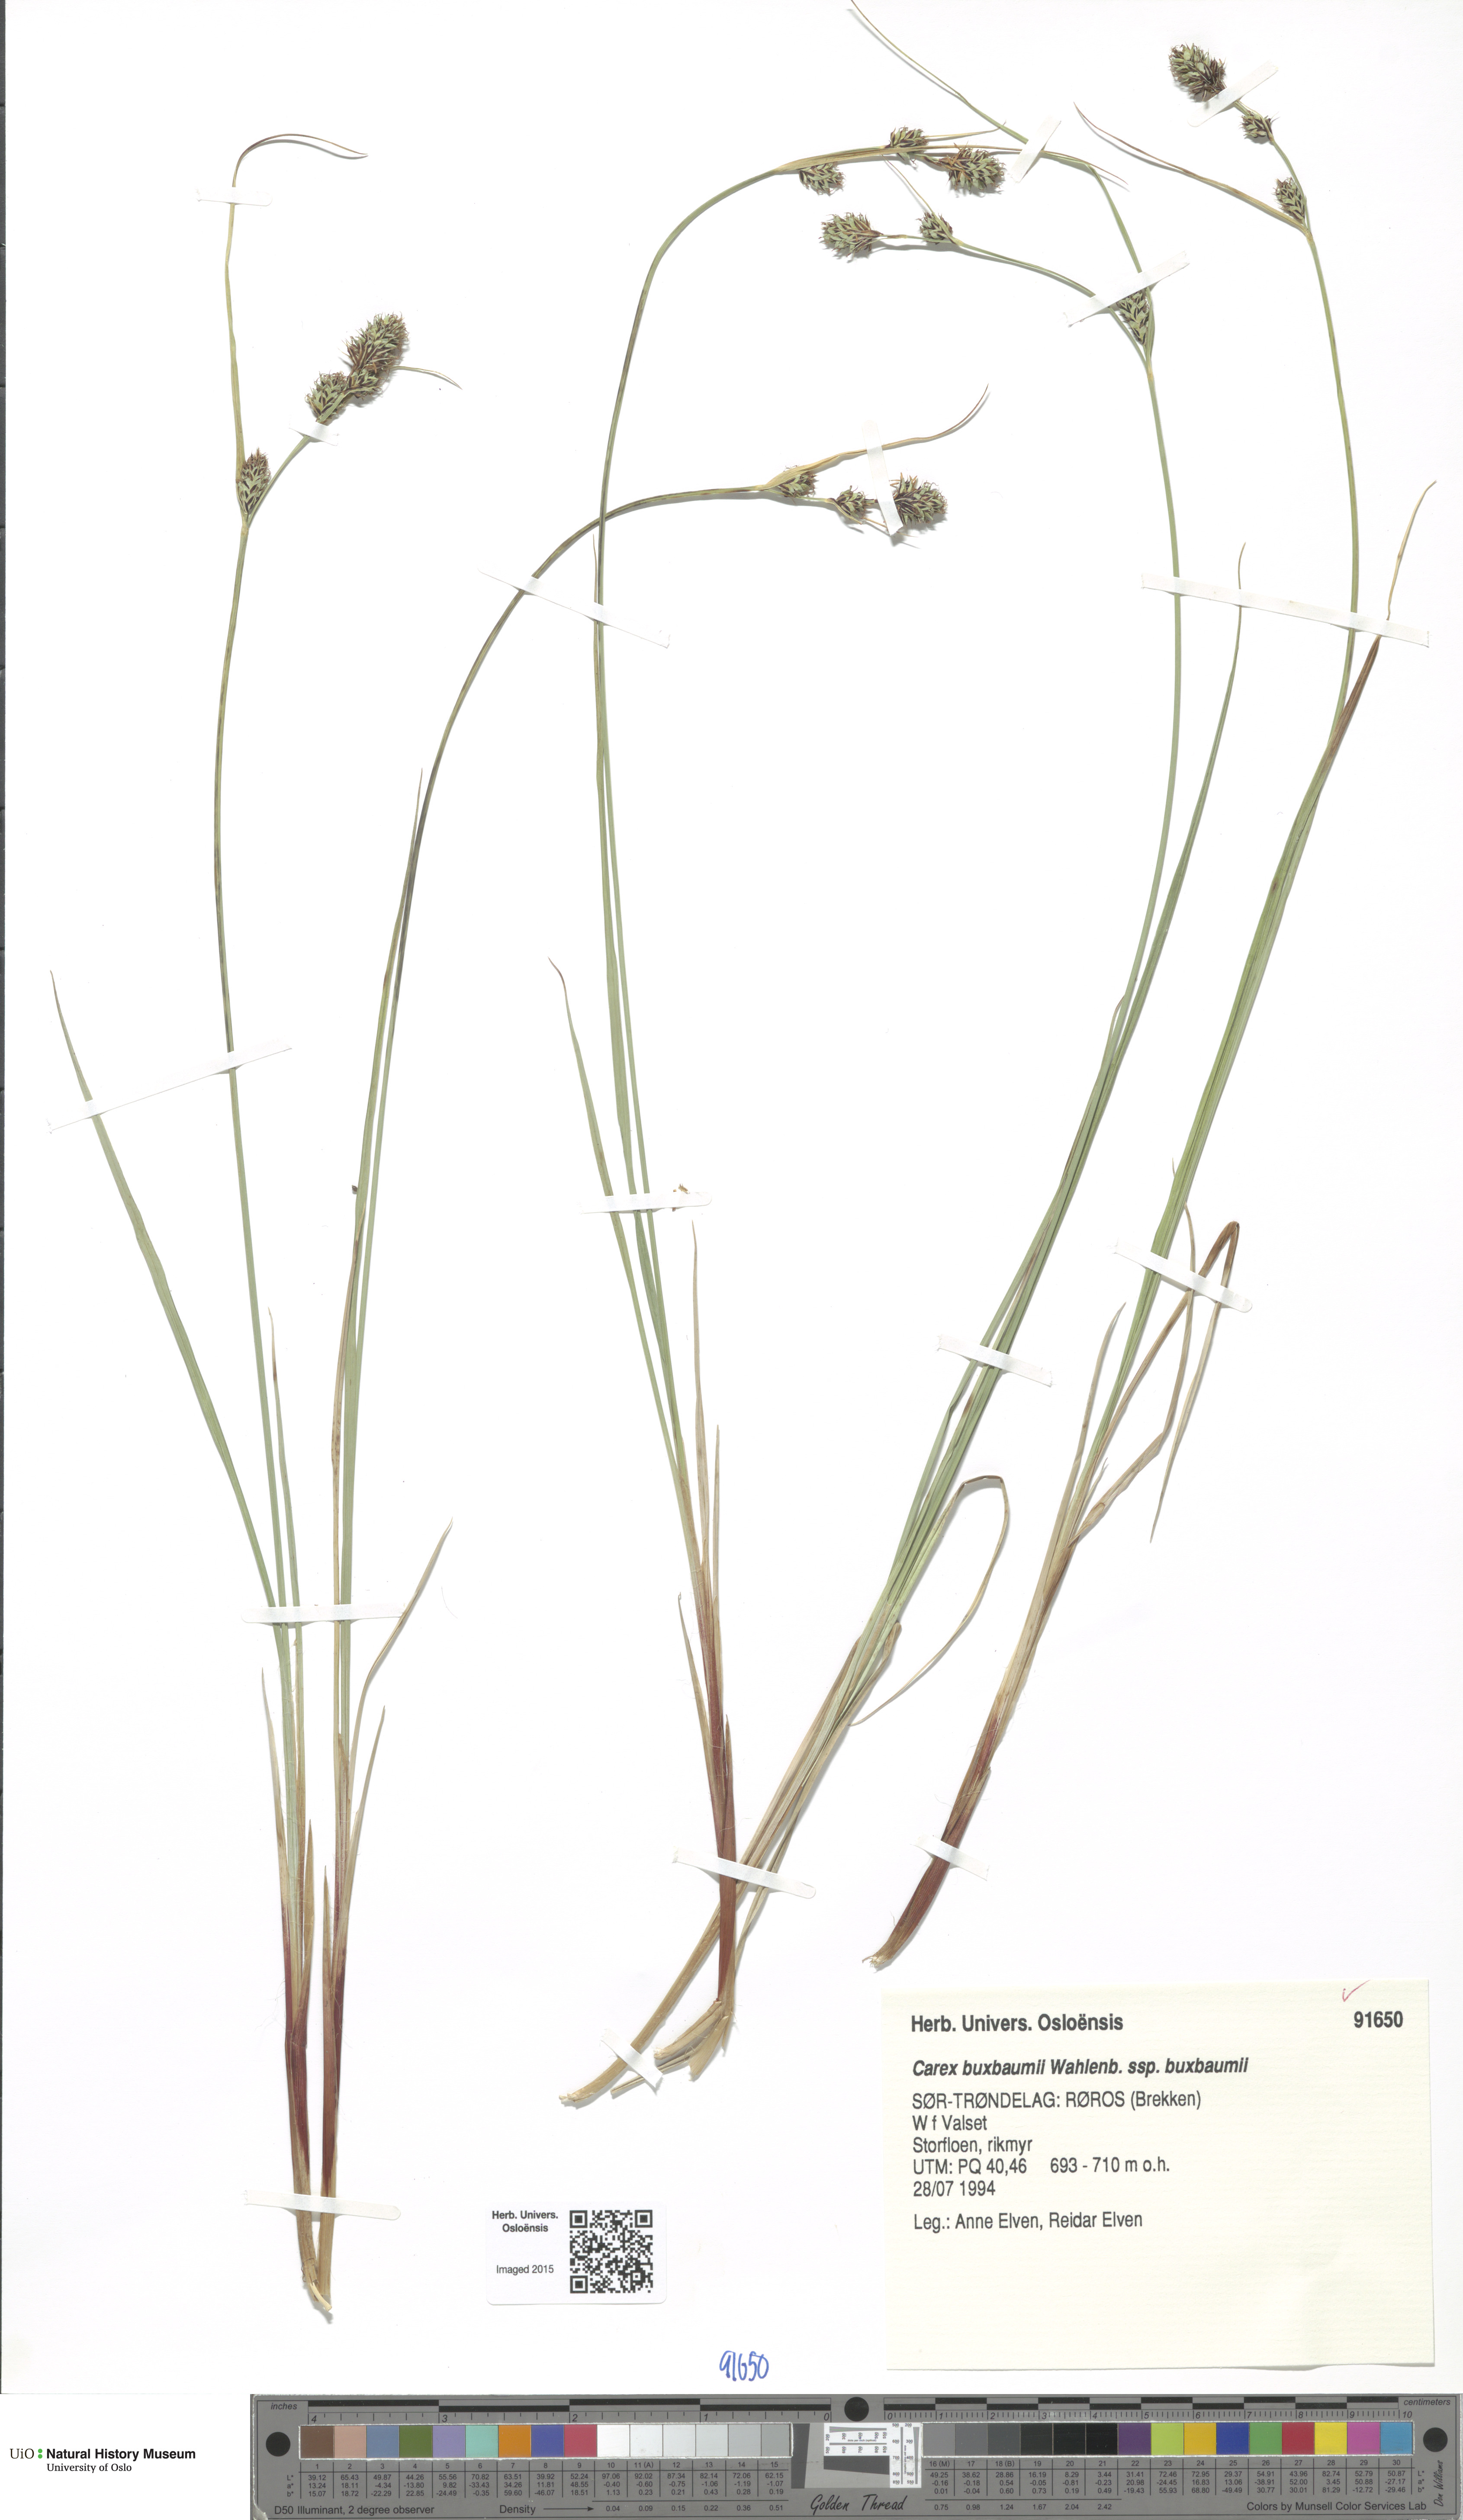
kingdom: Plantae
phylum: Tracheophyta
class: Liliopsida
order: Poales
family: Cyperaceae
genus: Carex
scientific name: Carex buxbaumii
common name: Club sedge
